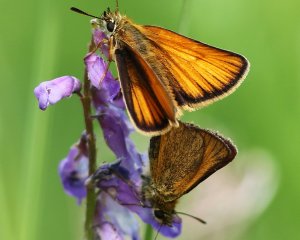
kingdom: Animalia
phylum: Arthropoda
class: Insecta
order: Lepidoptera
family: Hesperiidae
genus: Thymelicus
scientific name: Thymelicus lineola
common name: European Skipper
